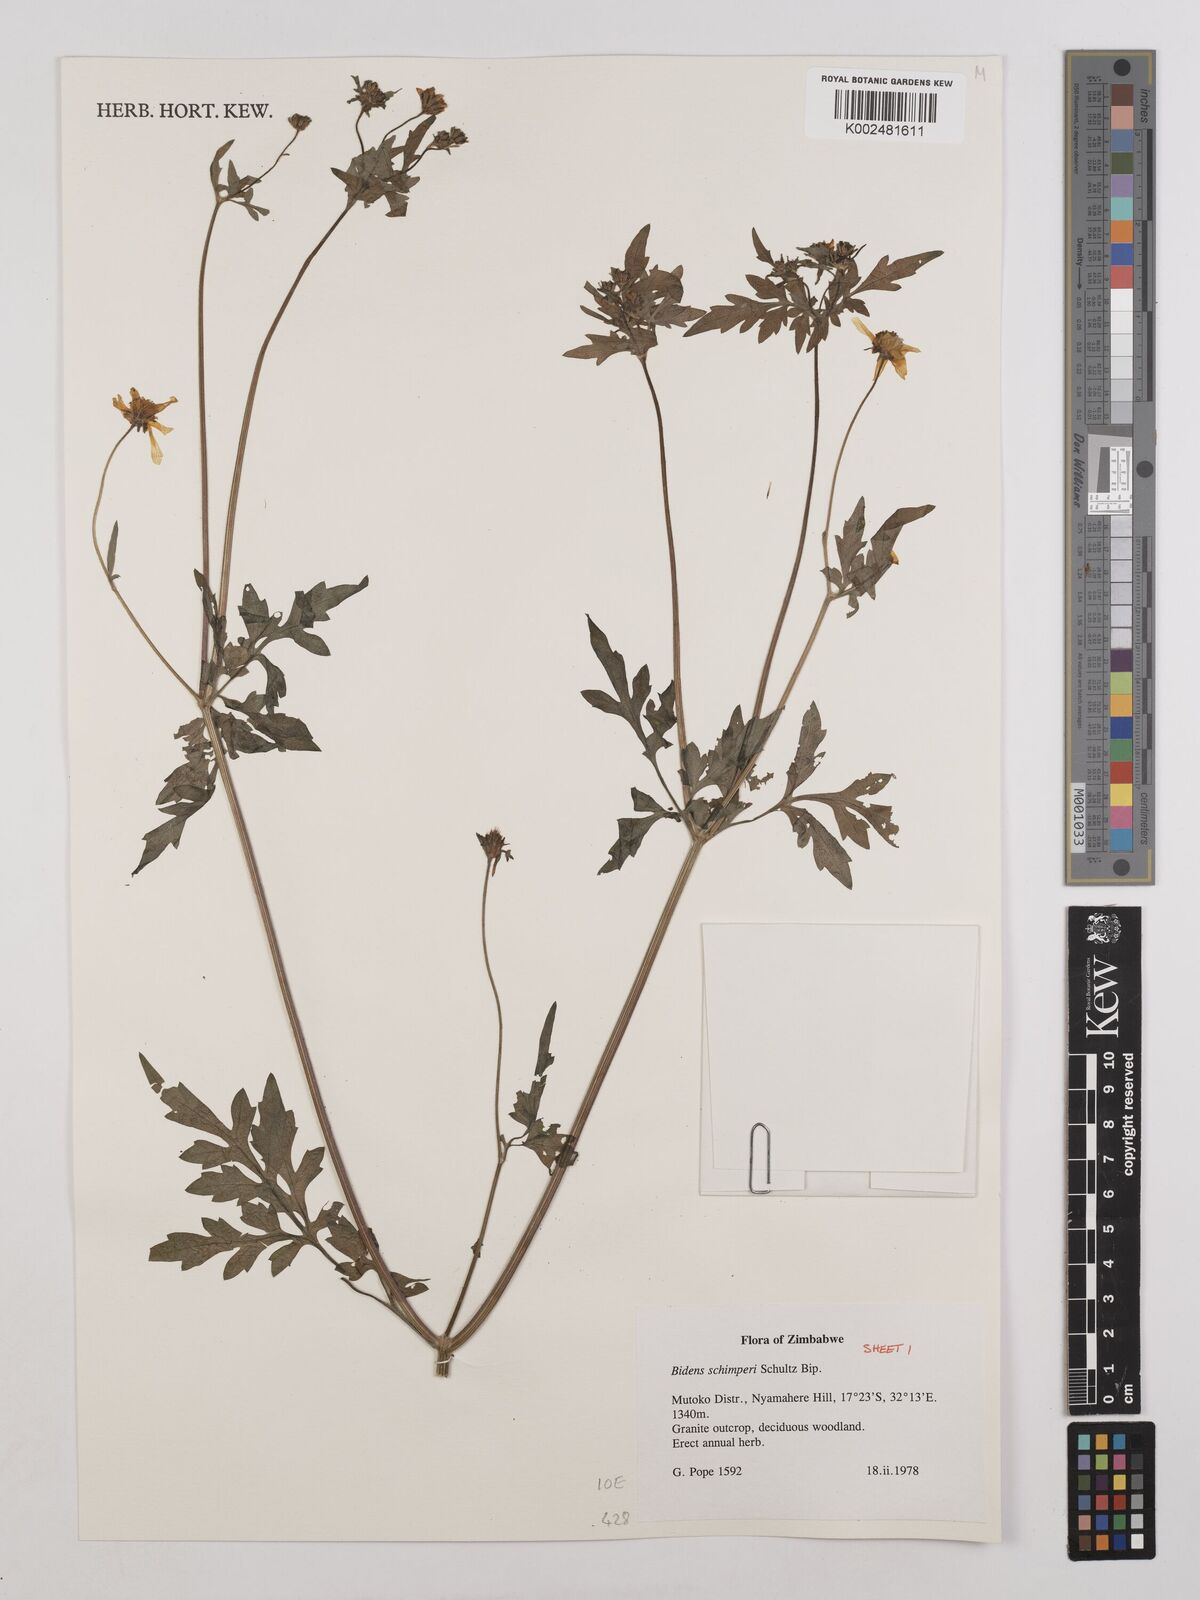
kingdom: Plantae
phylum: Tracheophyta
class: Magnoliopsida
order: Asterales
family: Asteraceae
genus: Bidens
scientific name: Bidens schimperi
